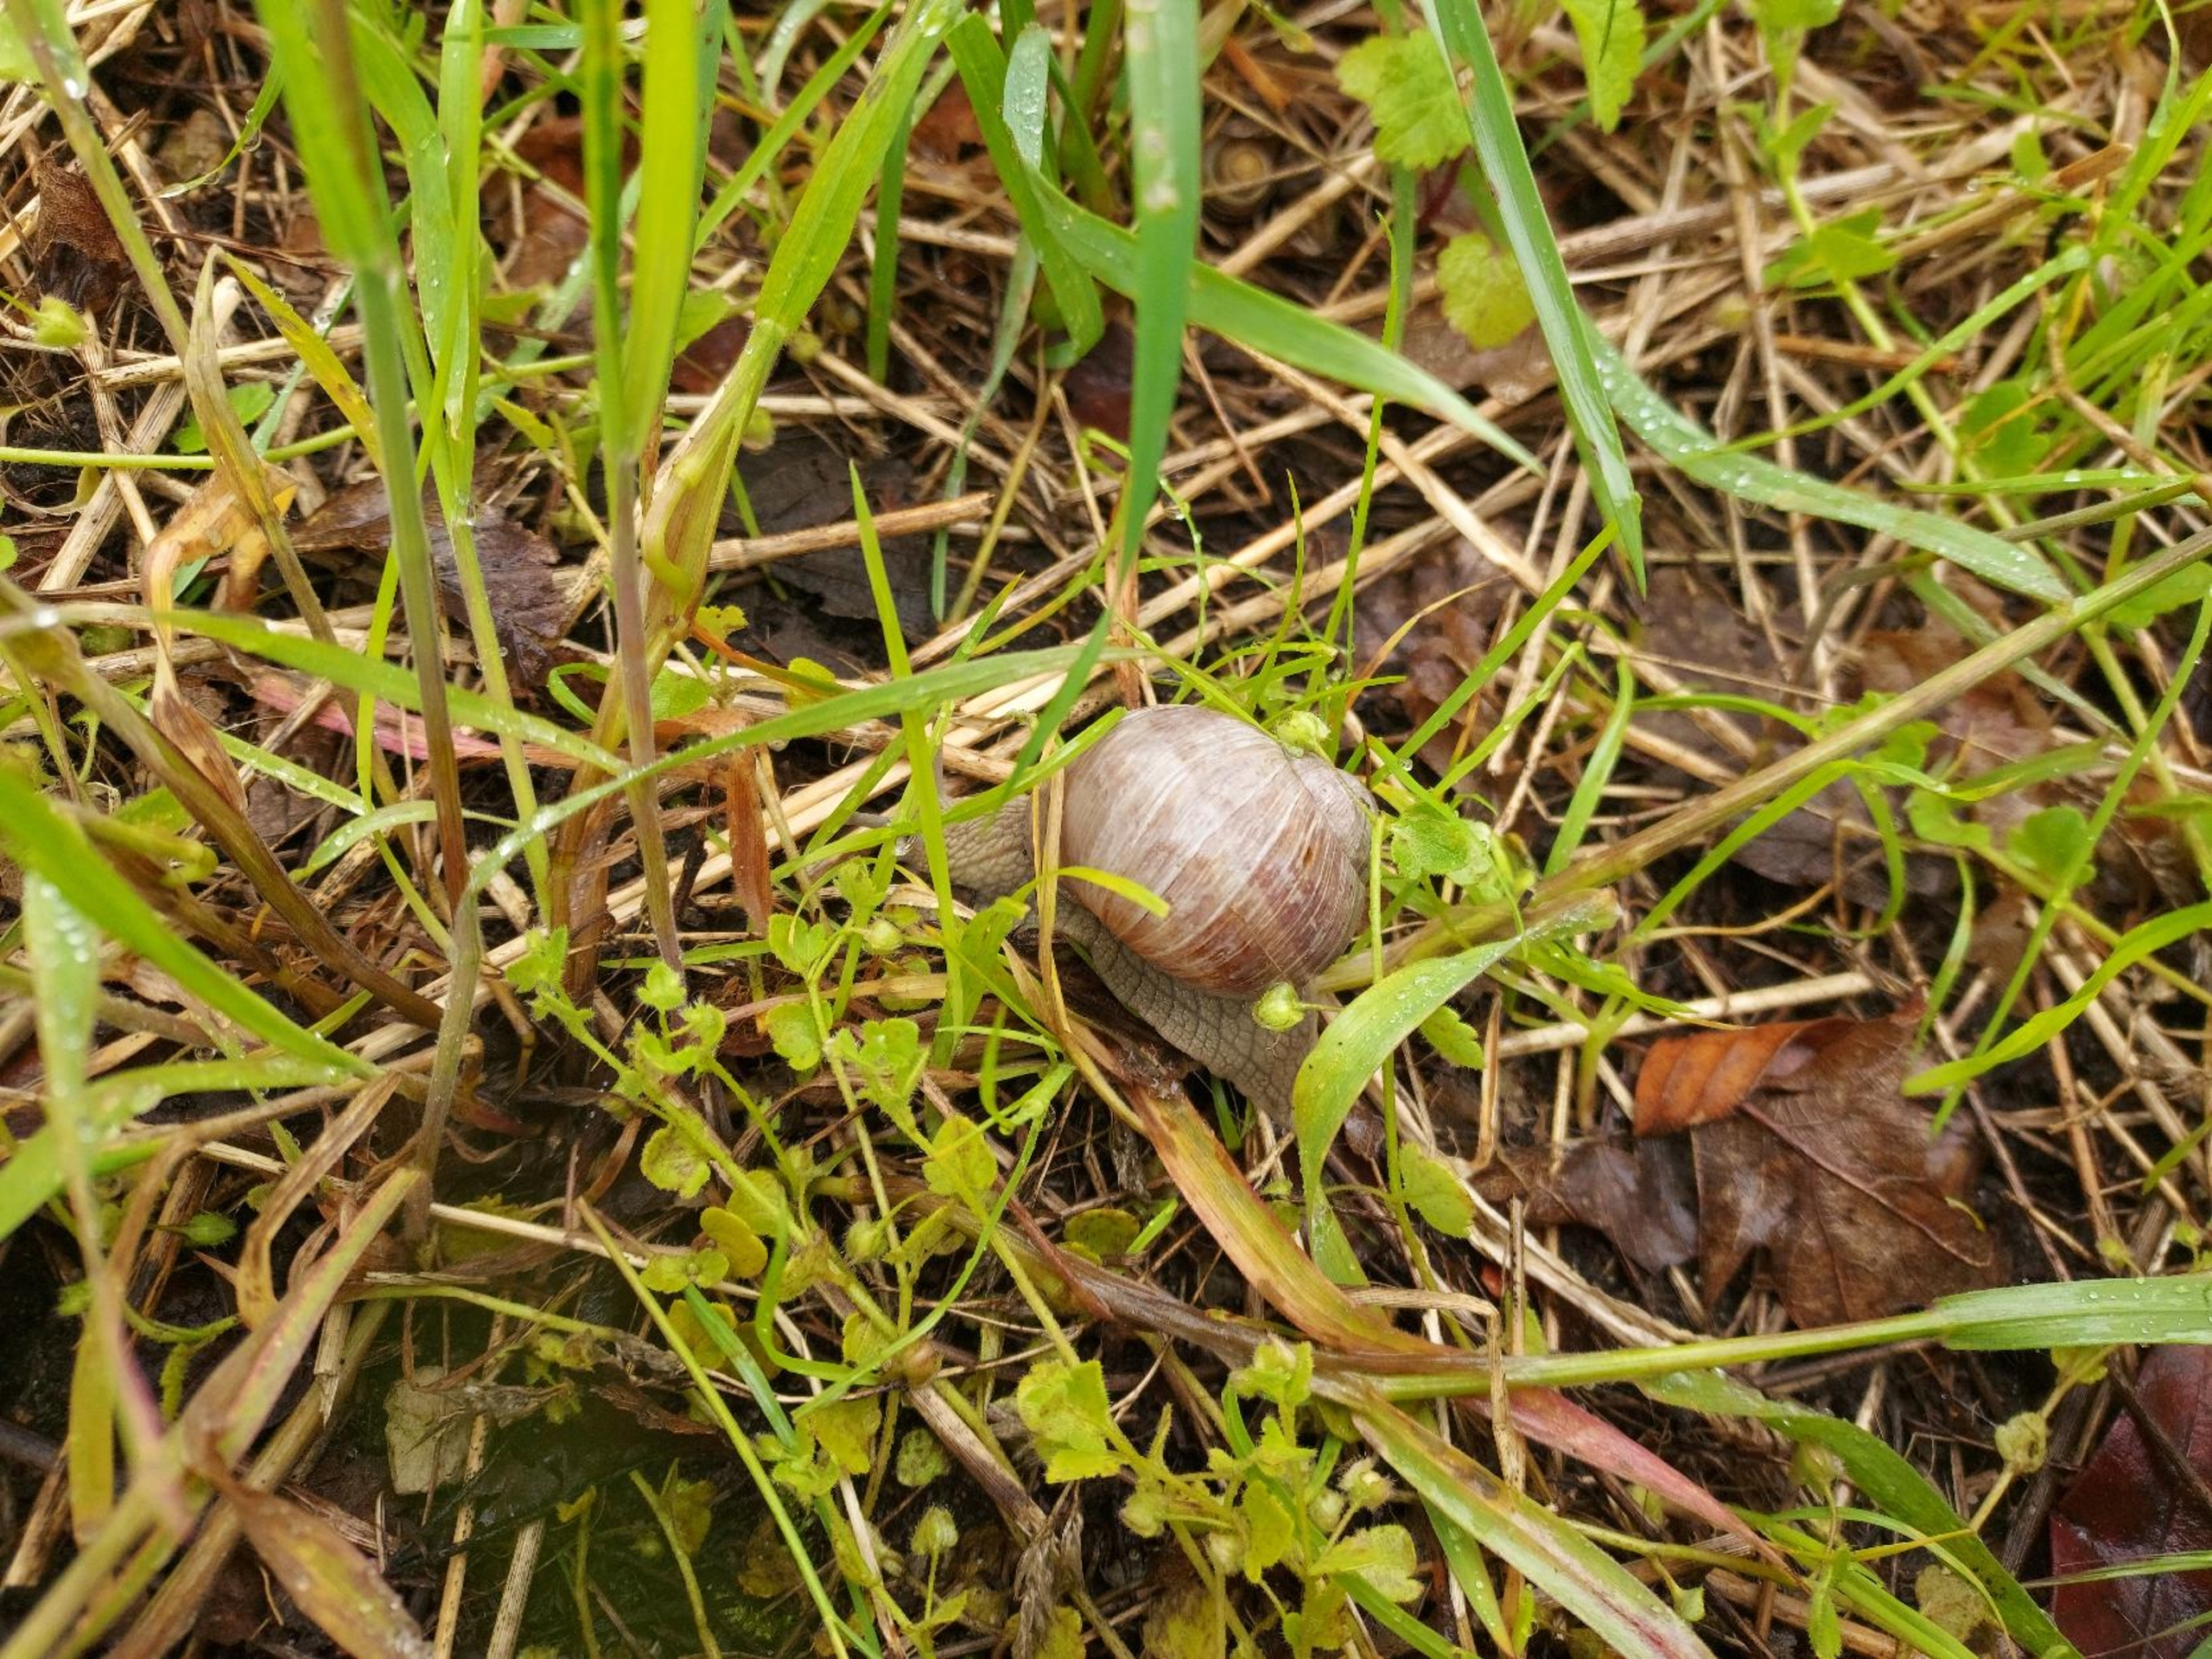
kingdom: Animalia
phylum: Mollusca
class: Gastropoda
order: Stylommatophora
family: Helicidae
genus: Helix
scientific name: Helix pomatia
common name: Vinbjergsnegl
